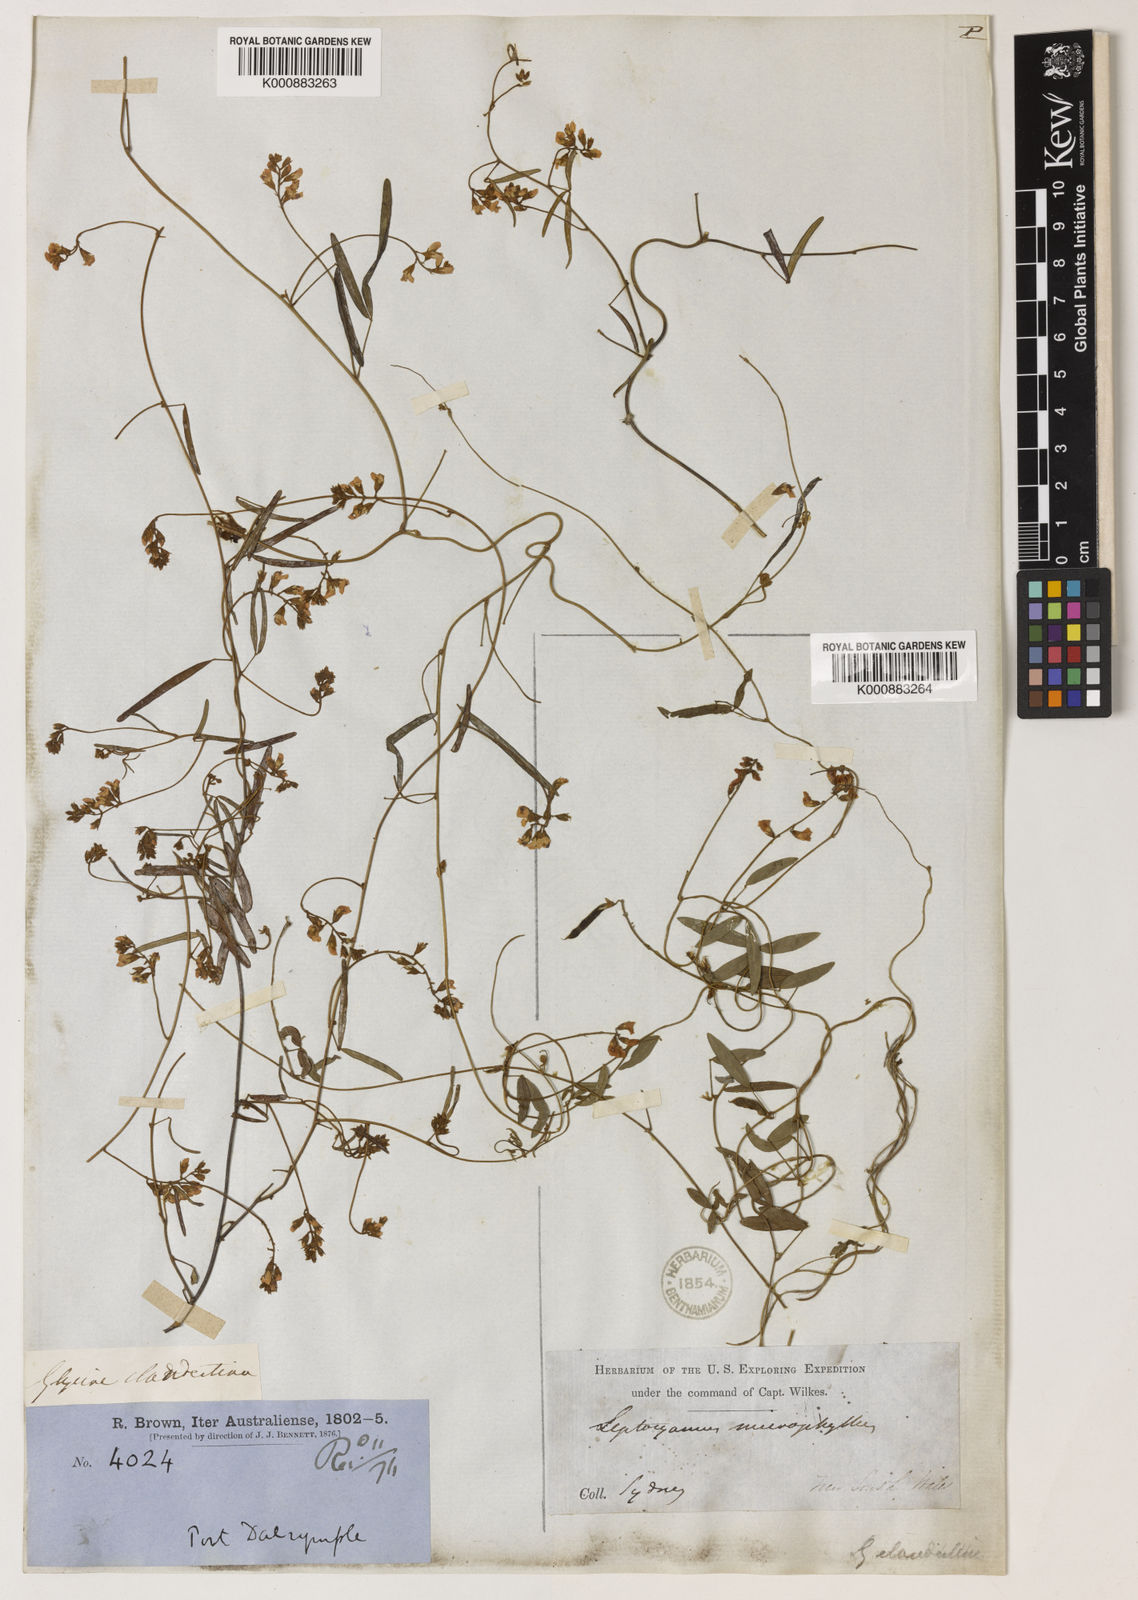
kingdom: Plantae
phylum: Tracheophyta
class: Magnoliopsida
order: Fabales
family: Fabaceae
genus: Glycine
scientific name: Glycine clandestina
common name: Twining glycine
